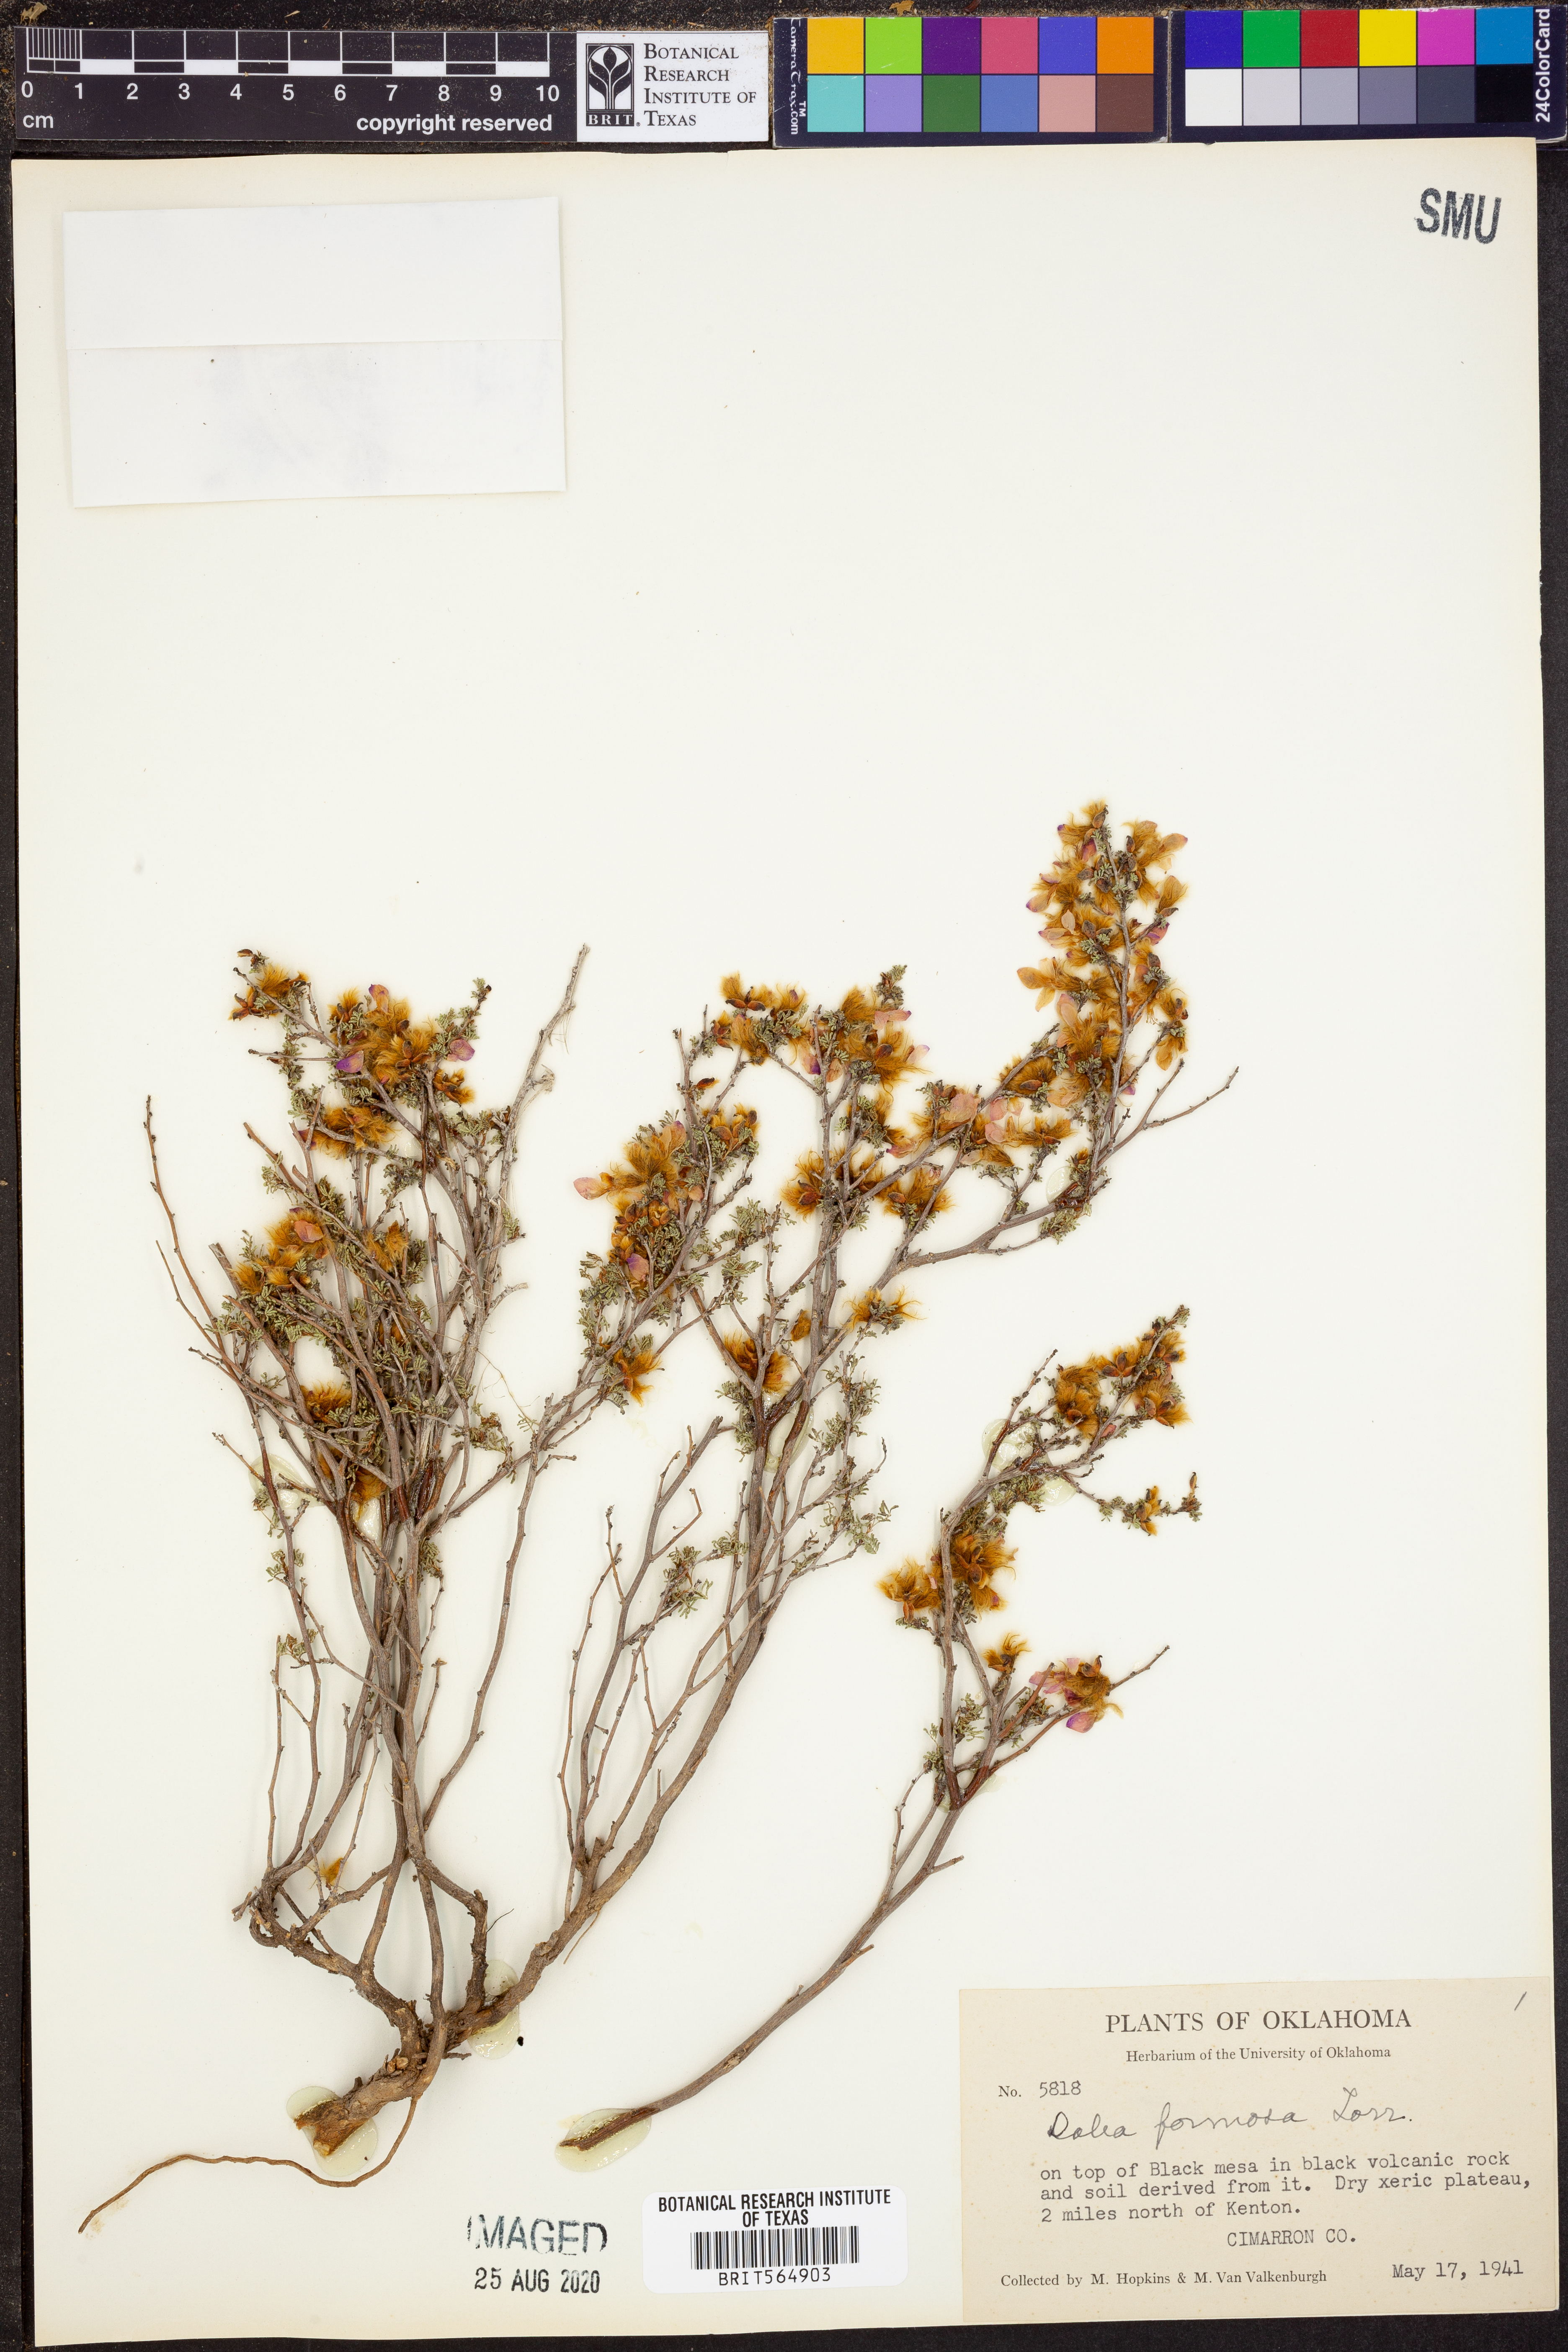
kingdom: Plantae
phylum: Tracheophyta
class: Magnoliopsida
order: Fabales
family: Fabaceae
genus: Dalea
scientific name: Dalea formosa
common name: Feather-plume dalea
